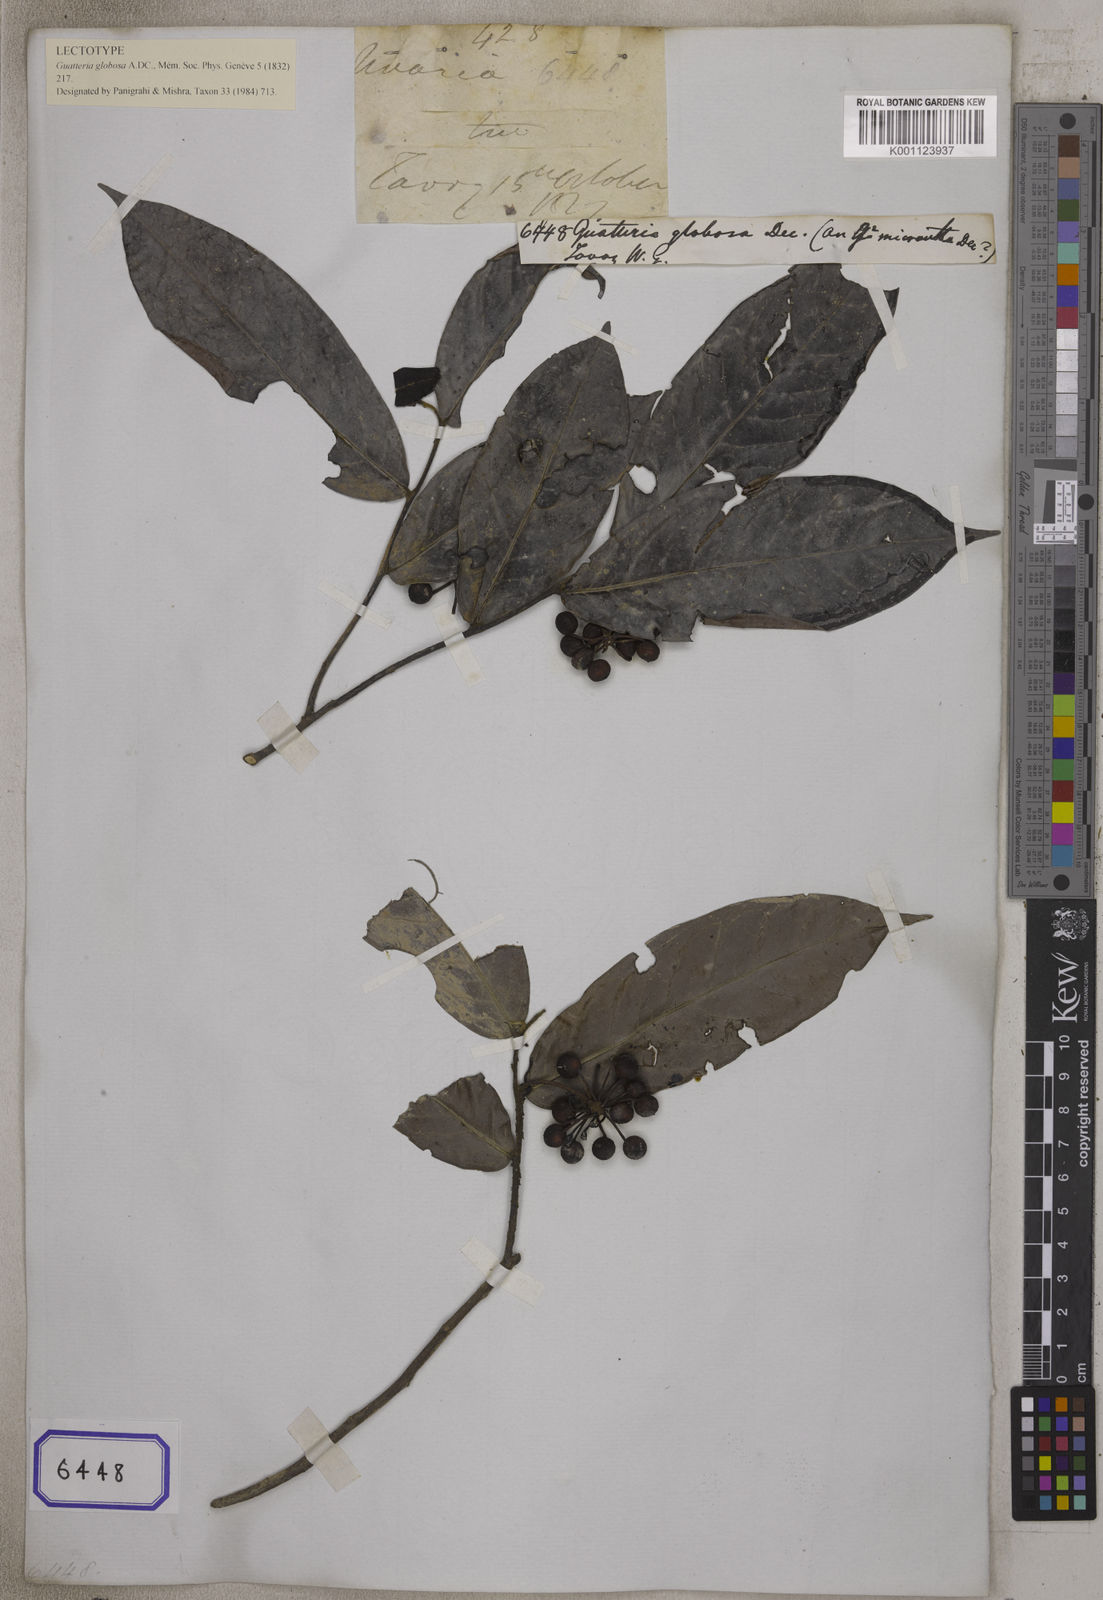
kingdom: Plantae
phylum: Tracheophyta
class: Magnoliopsida
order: Magnoliales
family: Annonaceae
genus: Miliusa
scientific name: Miliusa globosa
